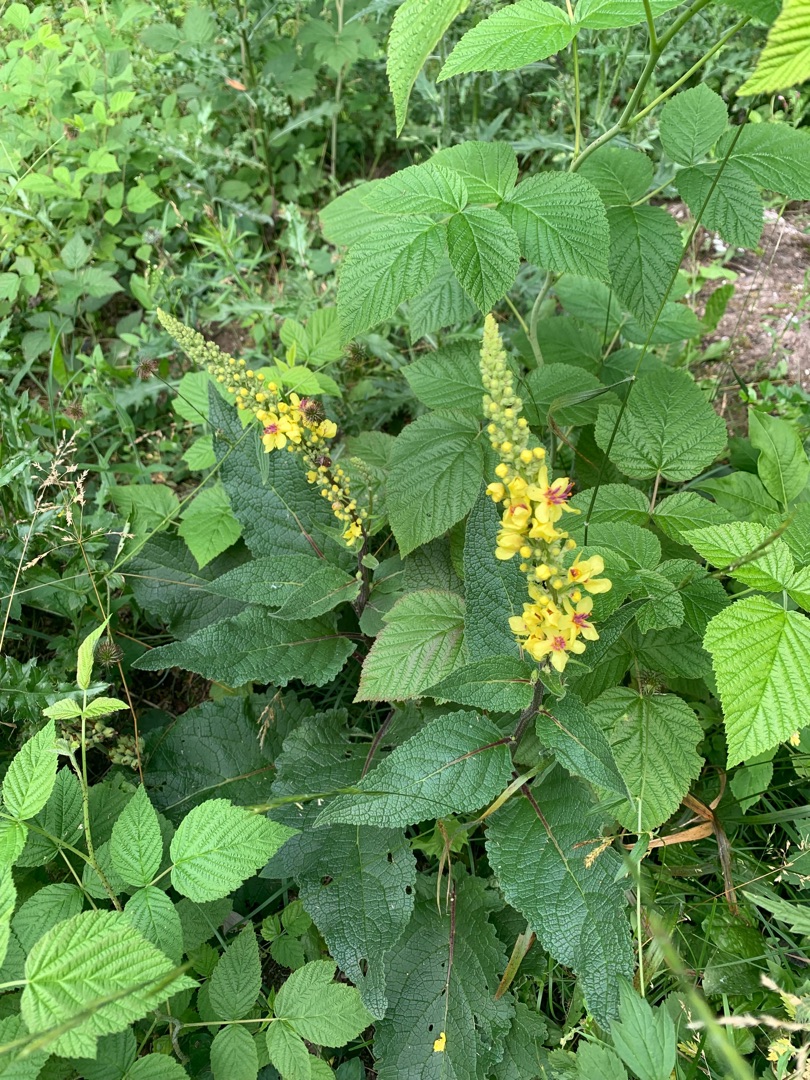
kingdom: Plantae
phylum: Tracheophyta
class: Magnoliopsida
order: Lamiales
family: Scrophulariaceae
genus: Verbascum
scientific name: Verbascum nigrum
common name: Mørk kongelys
